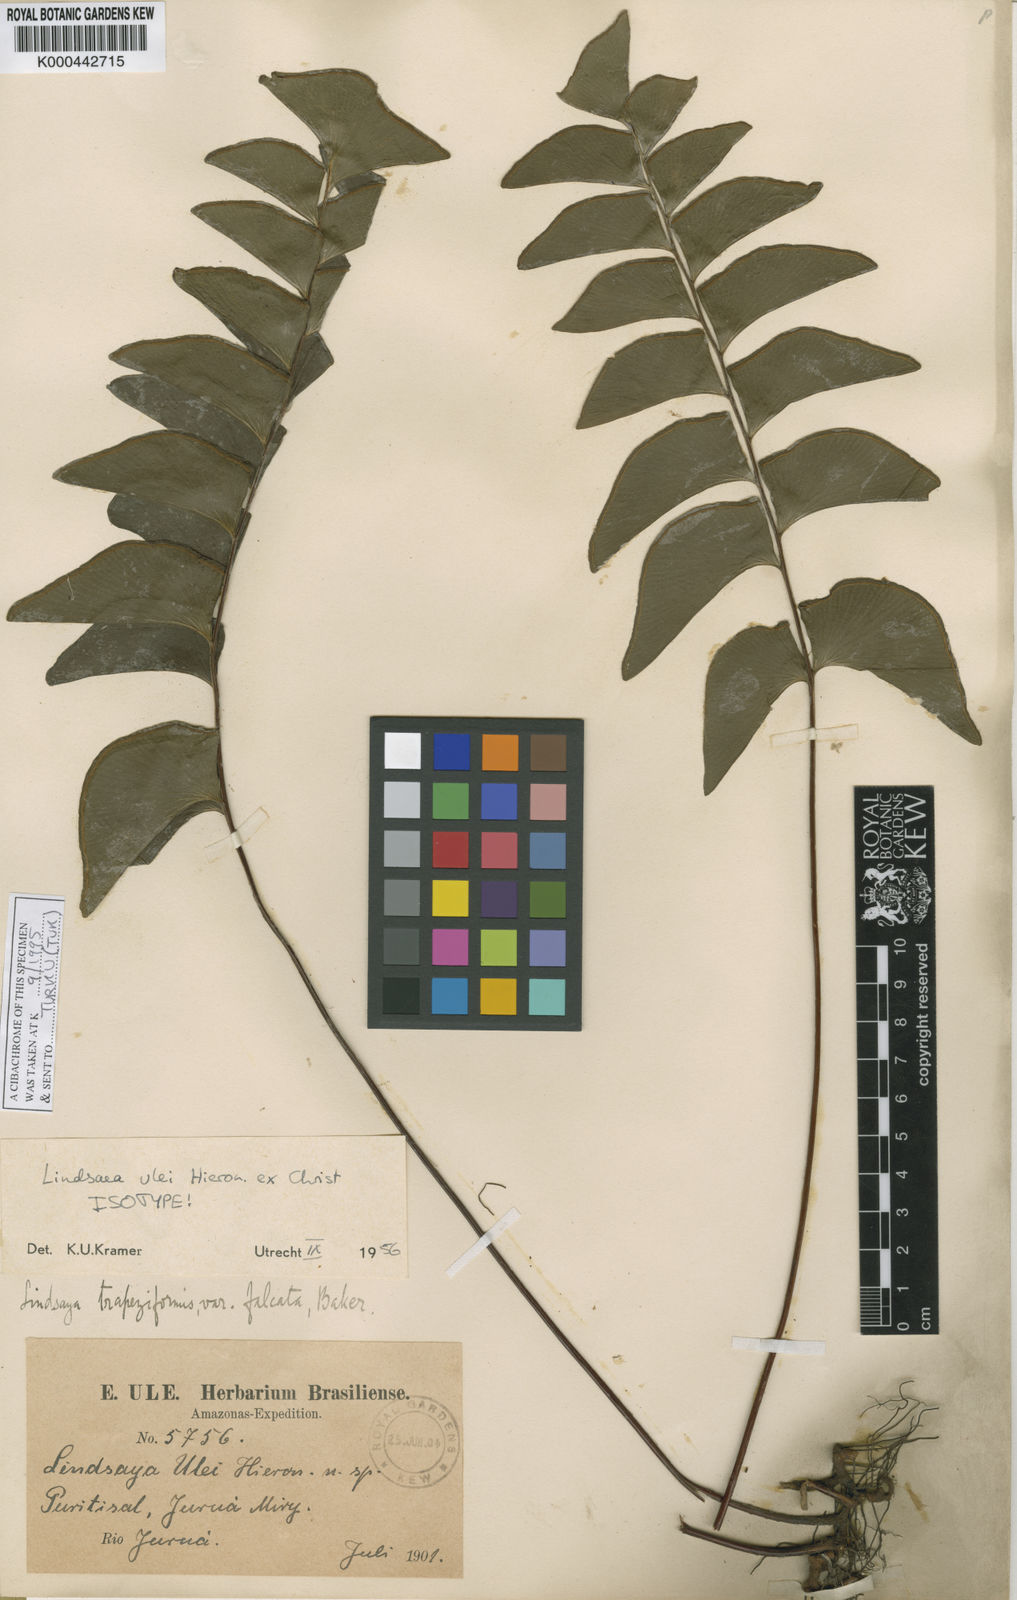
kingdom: Plantae
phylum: Tracheophyta
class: Polypodiopsida
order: Polypodiales
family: Lindsaeaceae
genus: Lindsaea
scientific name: Lindsaea ulei
